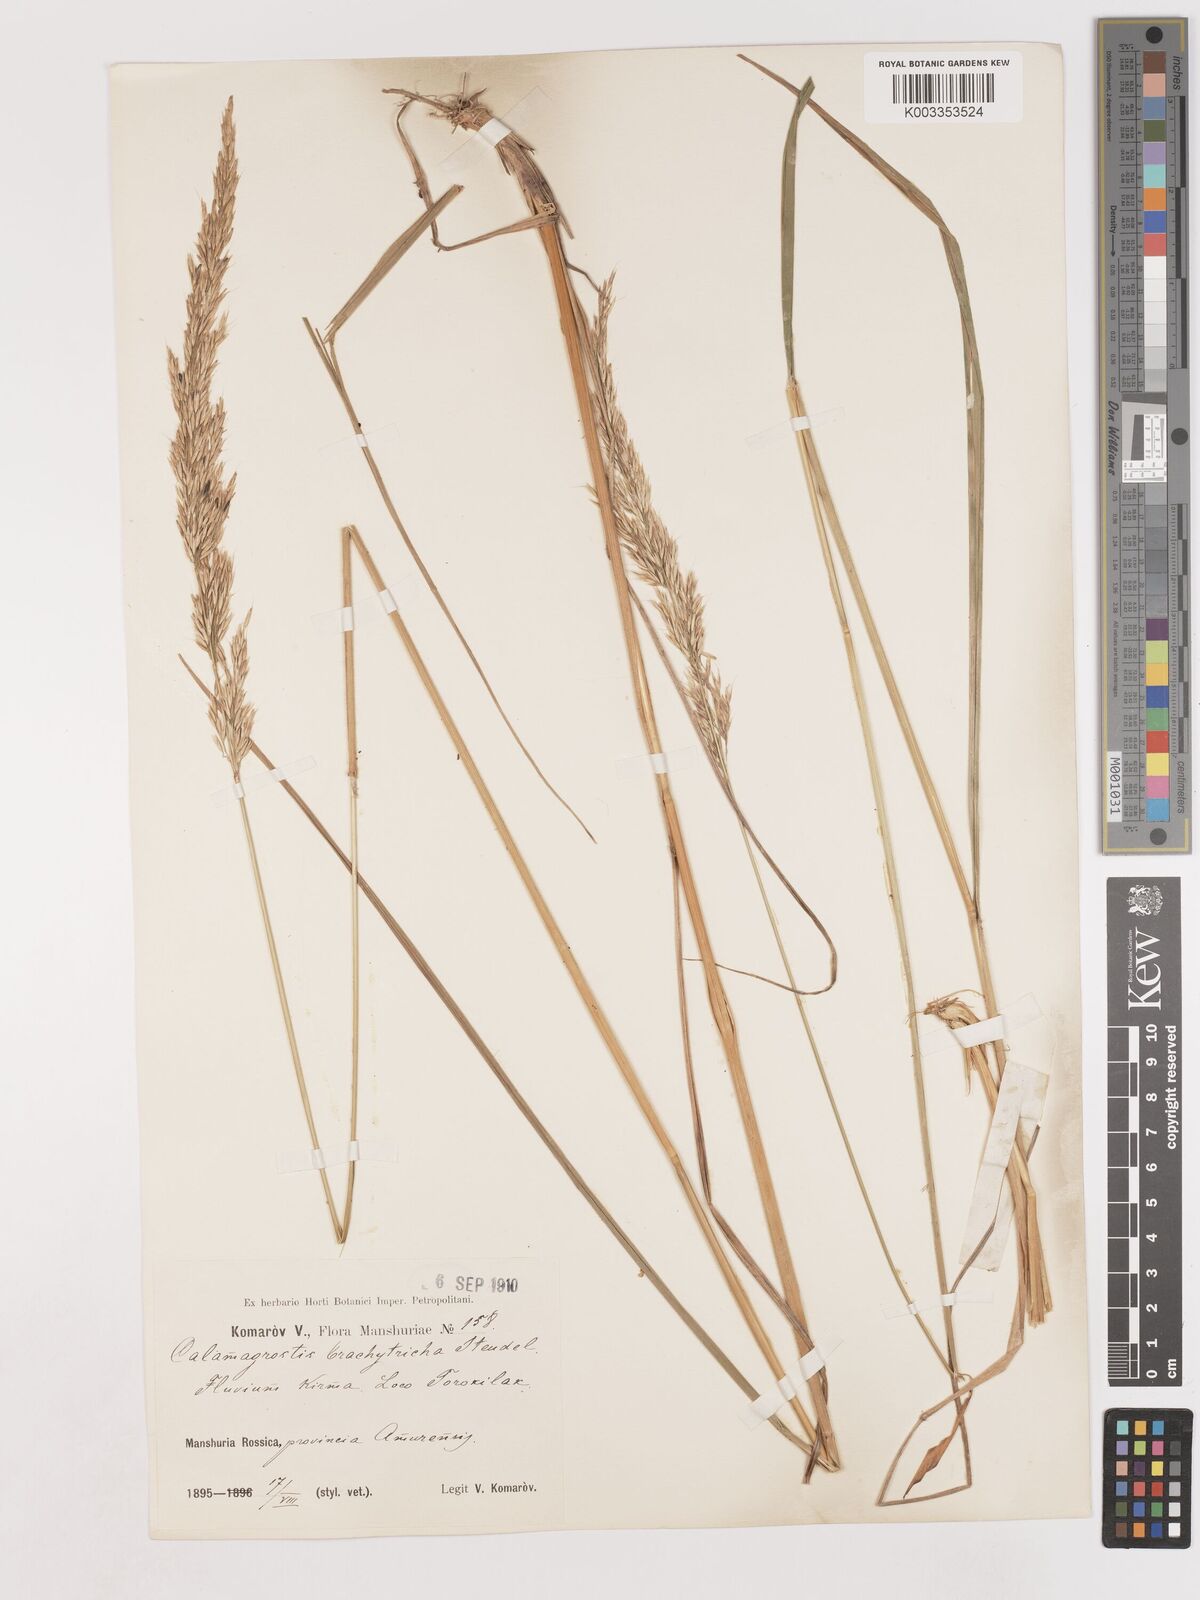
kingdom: Plantae
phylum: Tracheophyta
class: Liliopsida
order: Poales
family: Poaceae
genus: Calamagrostis
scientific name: Calamagrostis
